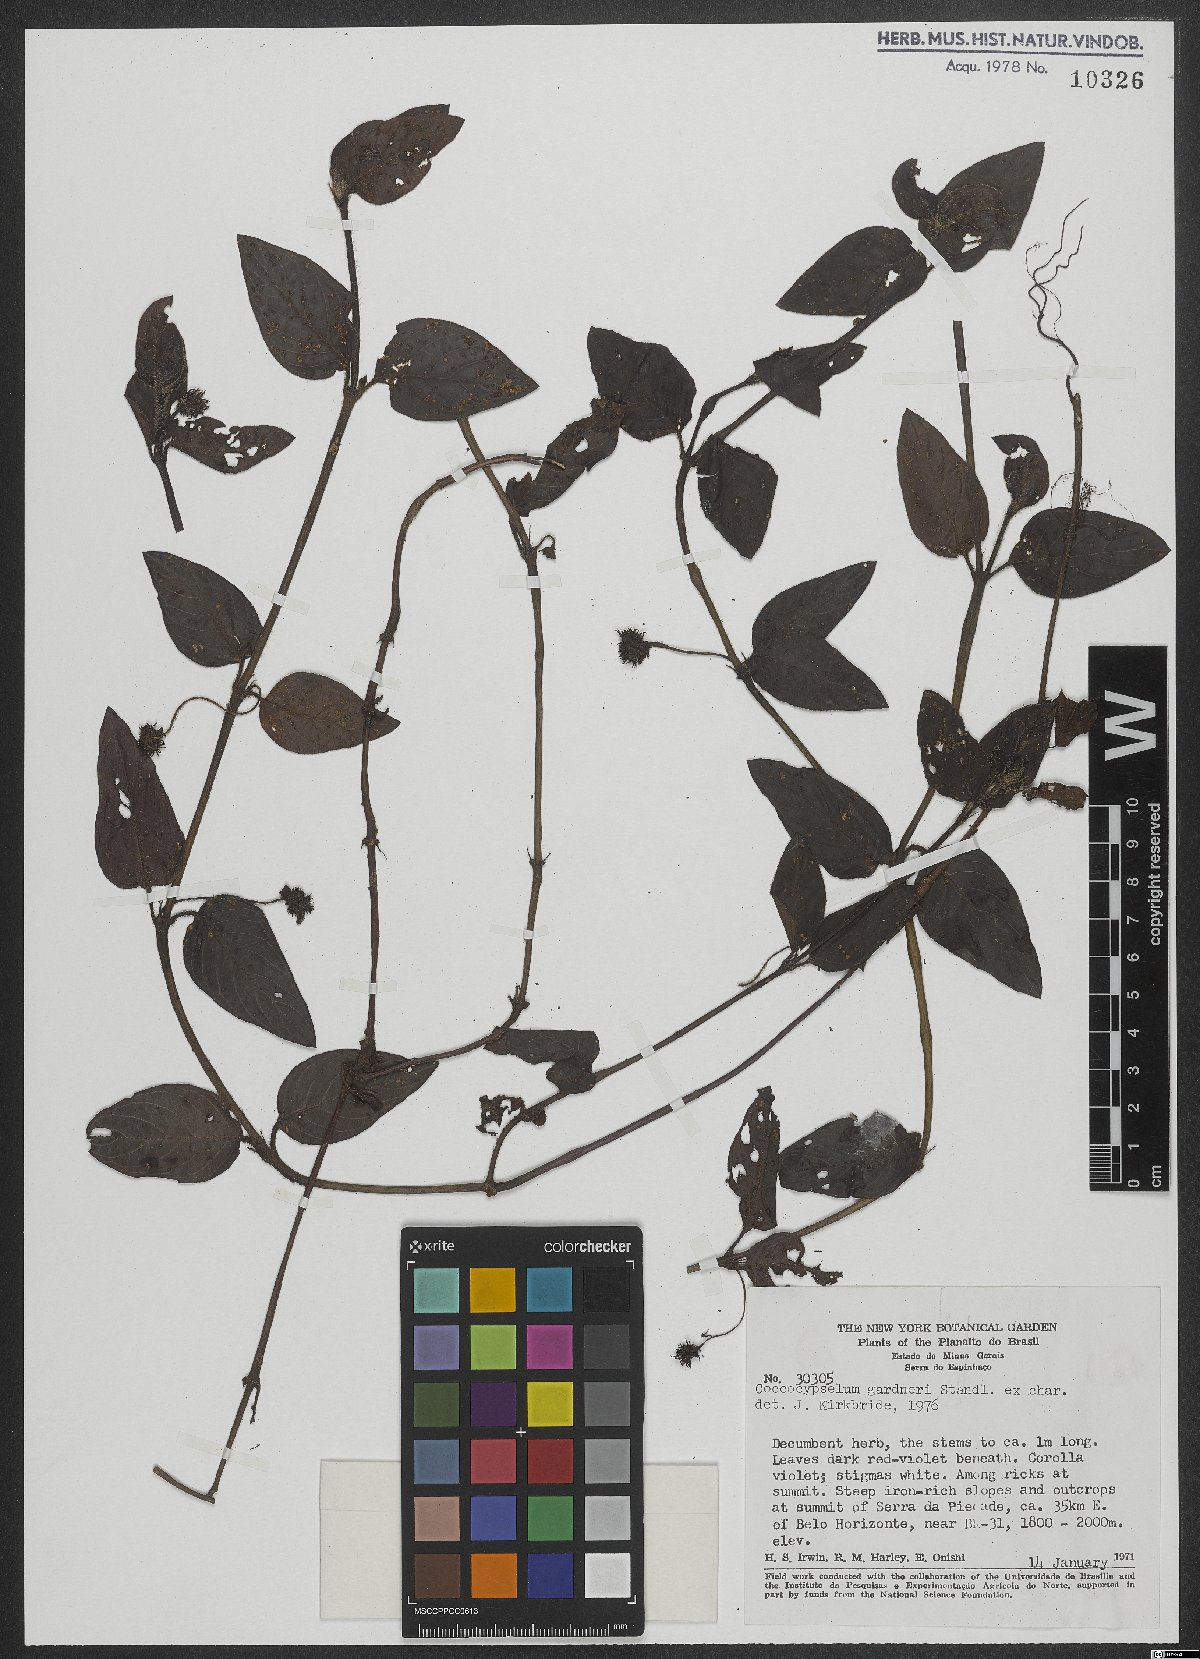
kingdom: Plantae
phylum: Tracheophyta
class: Magnoliopsida
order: Gentianales
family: Rubiaceae
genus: Coccocypselum
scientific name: Coccocypselum erythrocephalum
